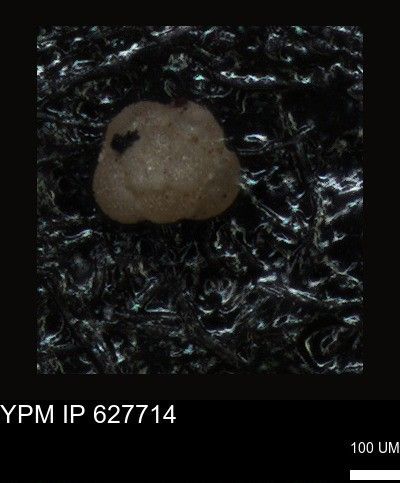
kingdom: Chromista
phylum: Foraminifera
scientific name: Foraminifera
